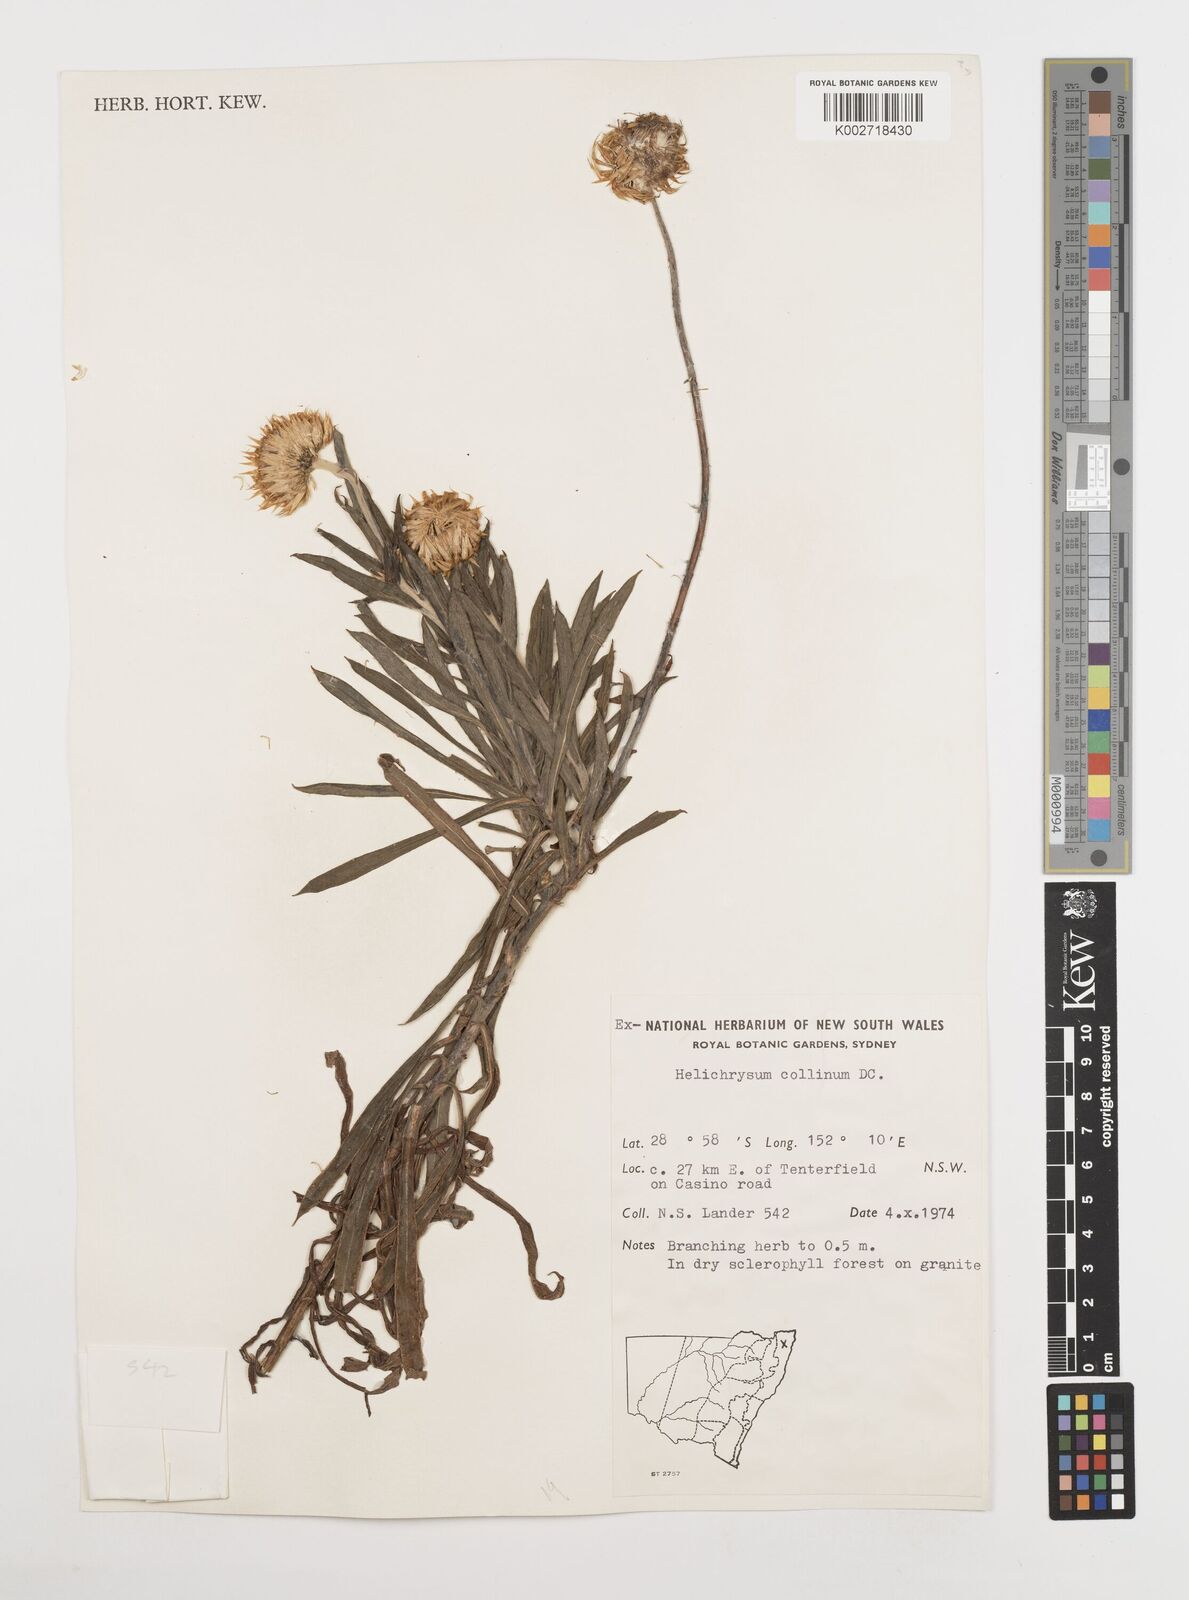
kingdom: Plantae
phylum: Tracheophyta
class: Magnoliopsida
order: Asterales
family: Asteraceae
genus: Coronidium
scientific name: Coronidium rupicola
